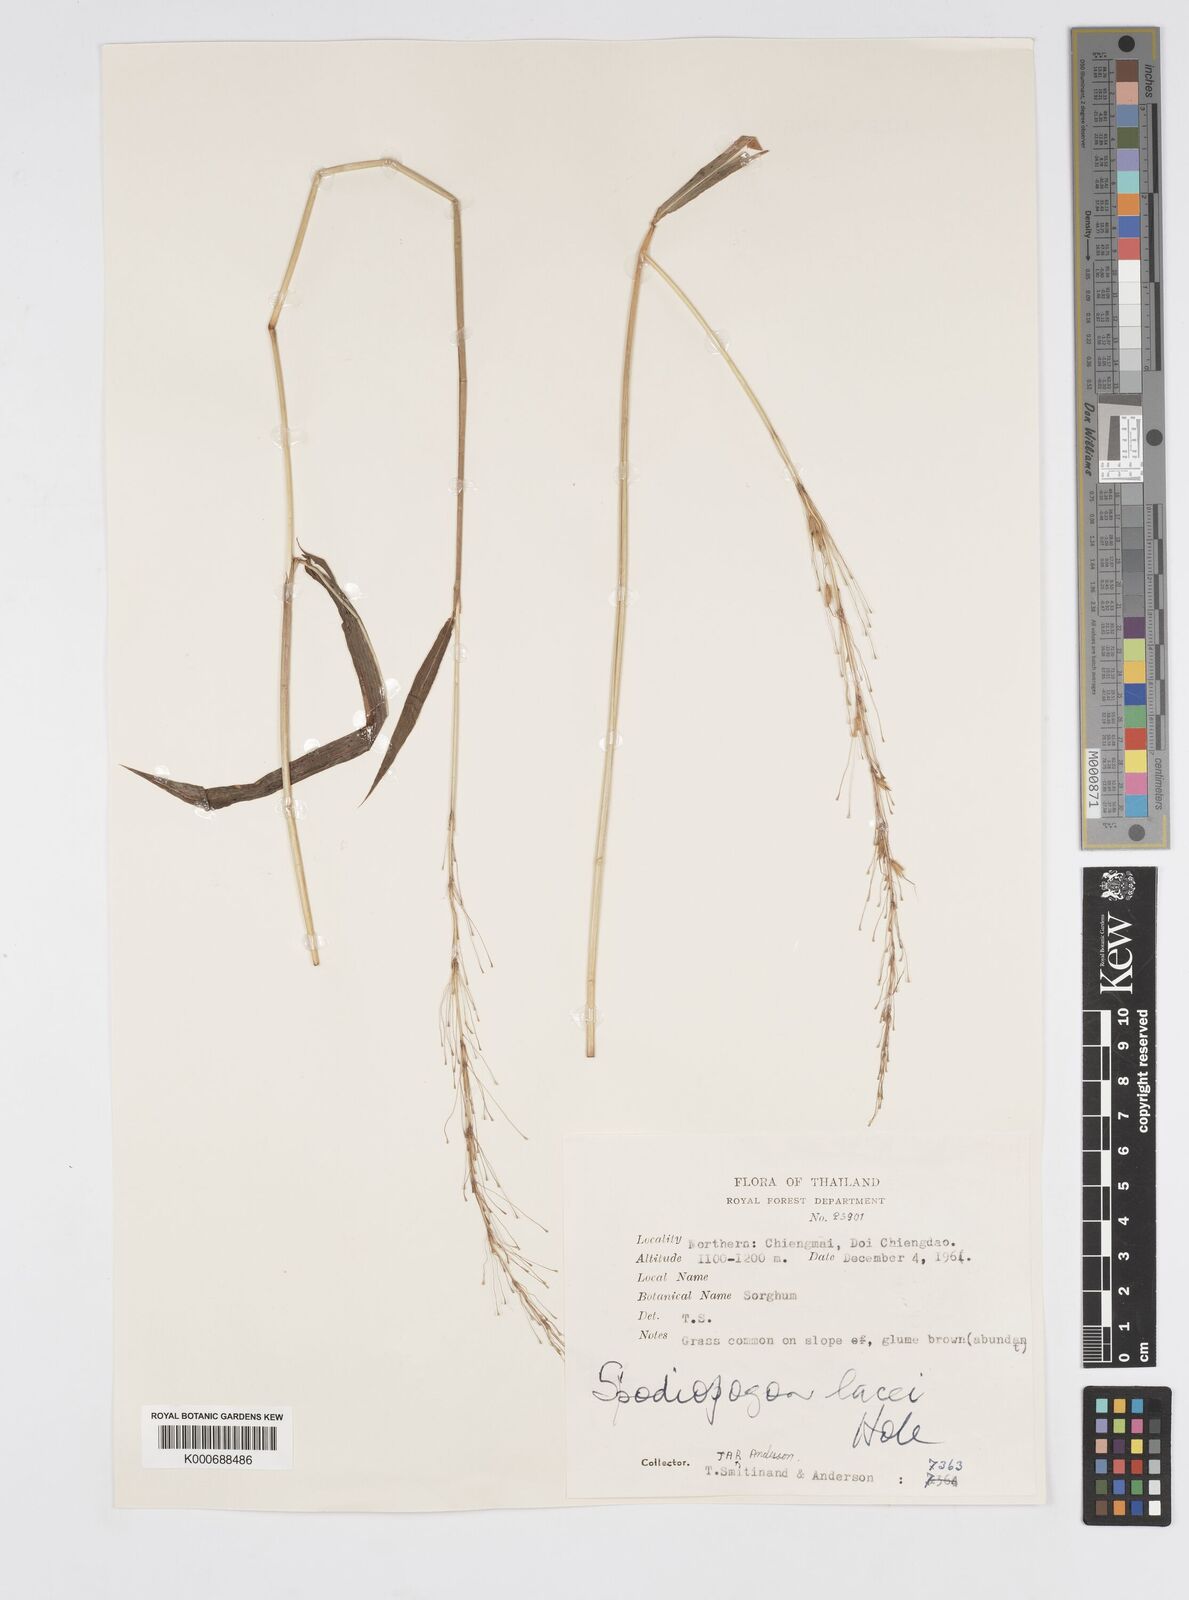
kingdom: Plantae
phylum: Tracheophyta
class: Liliopsida
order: Poales
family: Poaceae
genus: Spodiopogon
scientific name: Spodiopogon lacei
